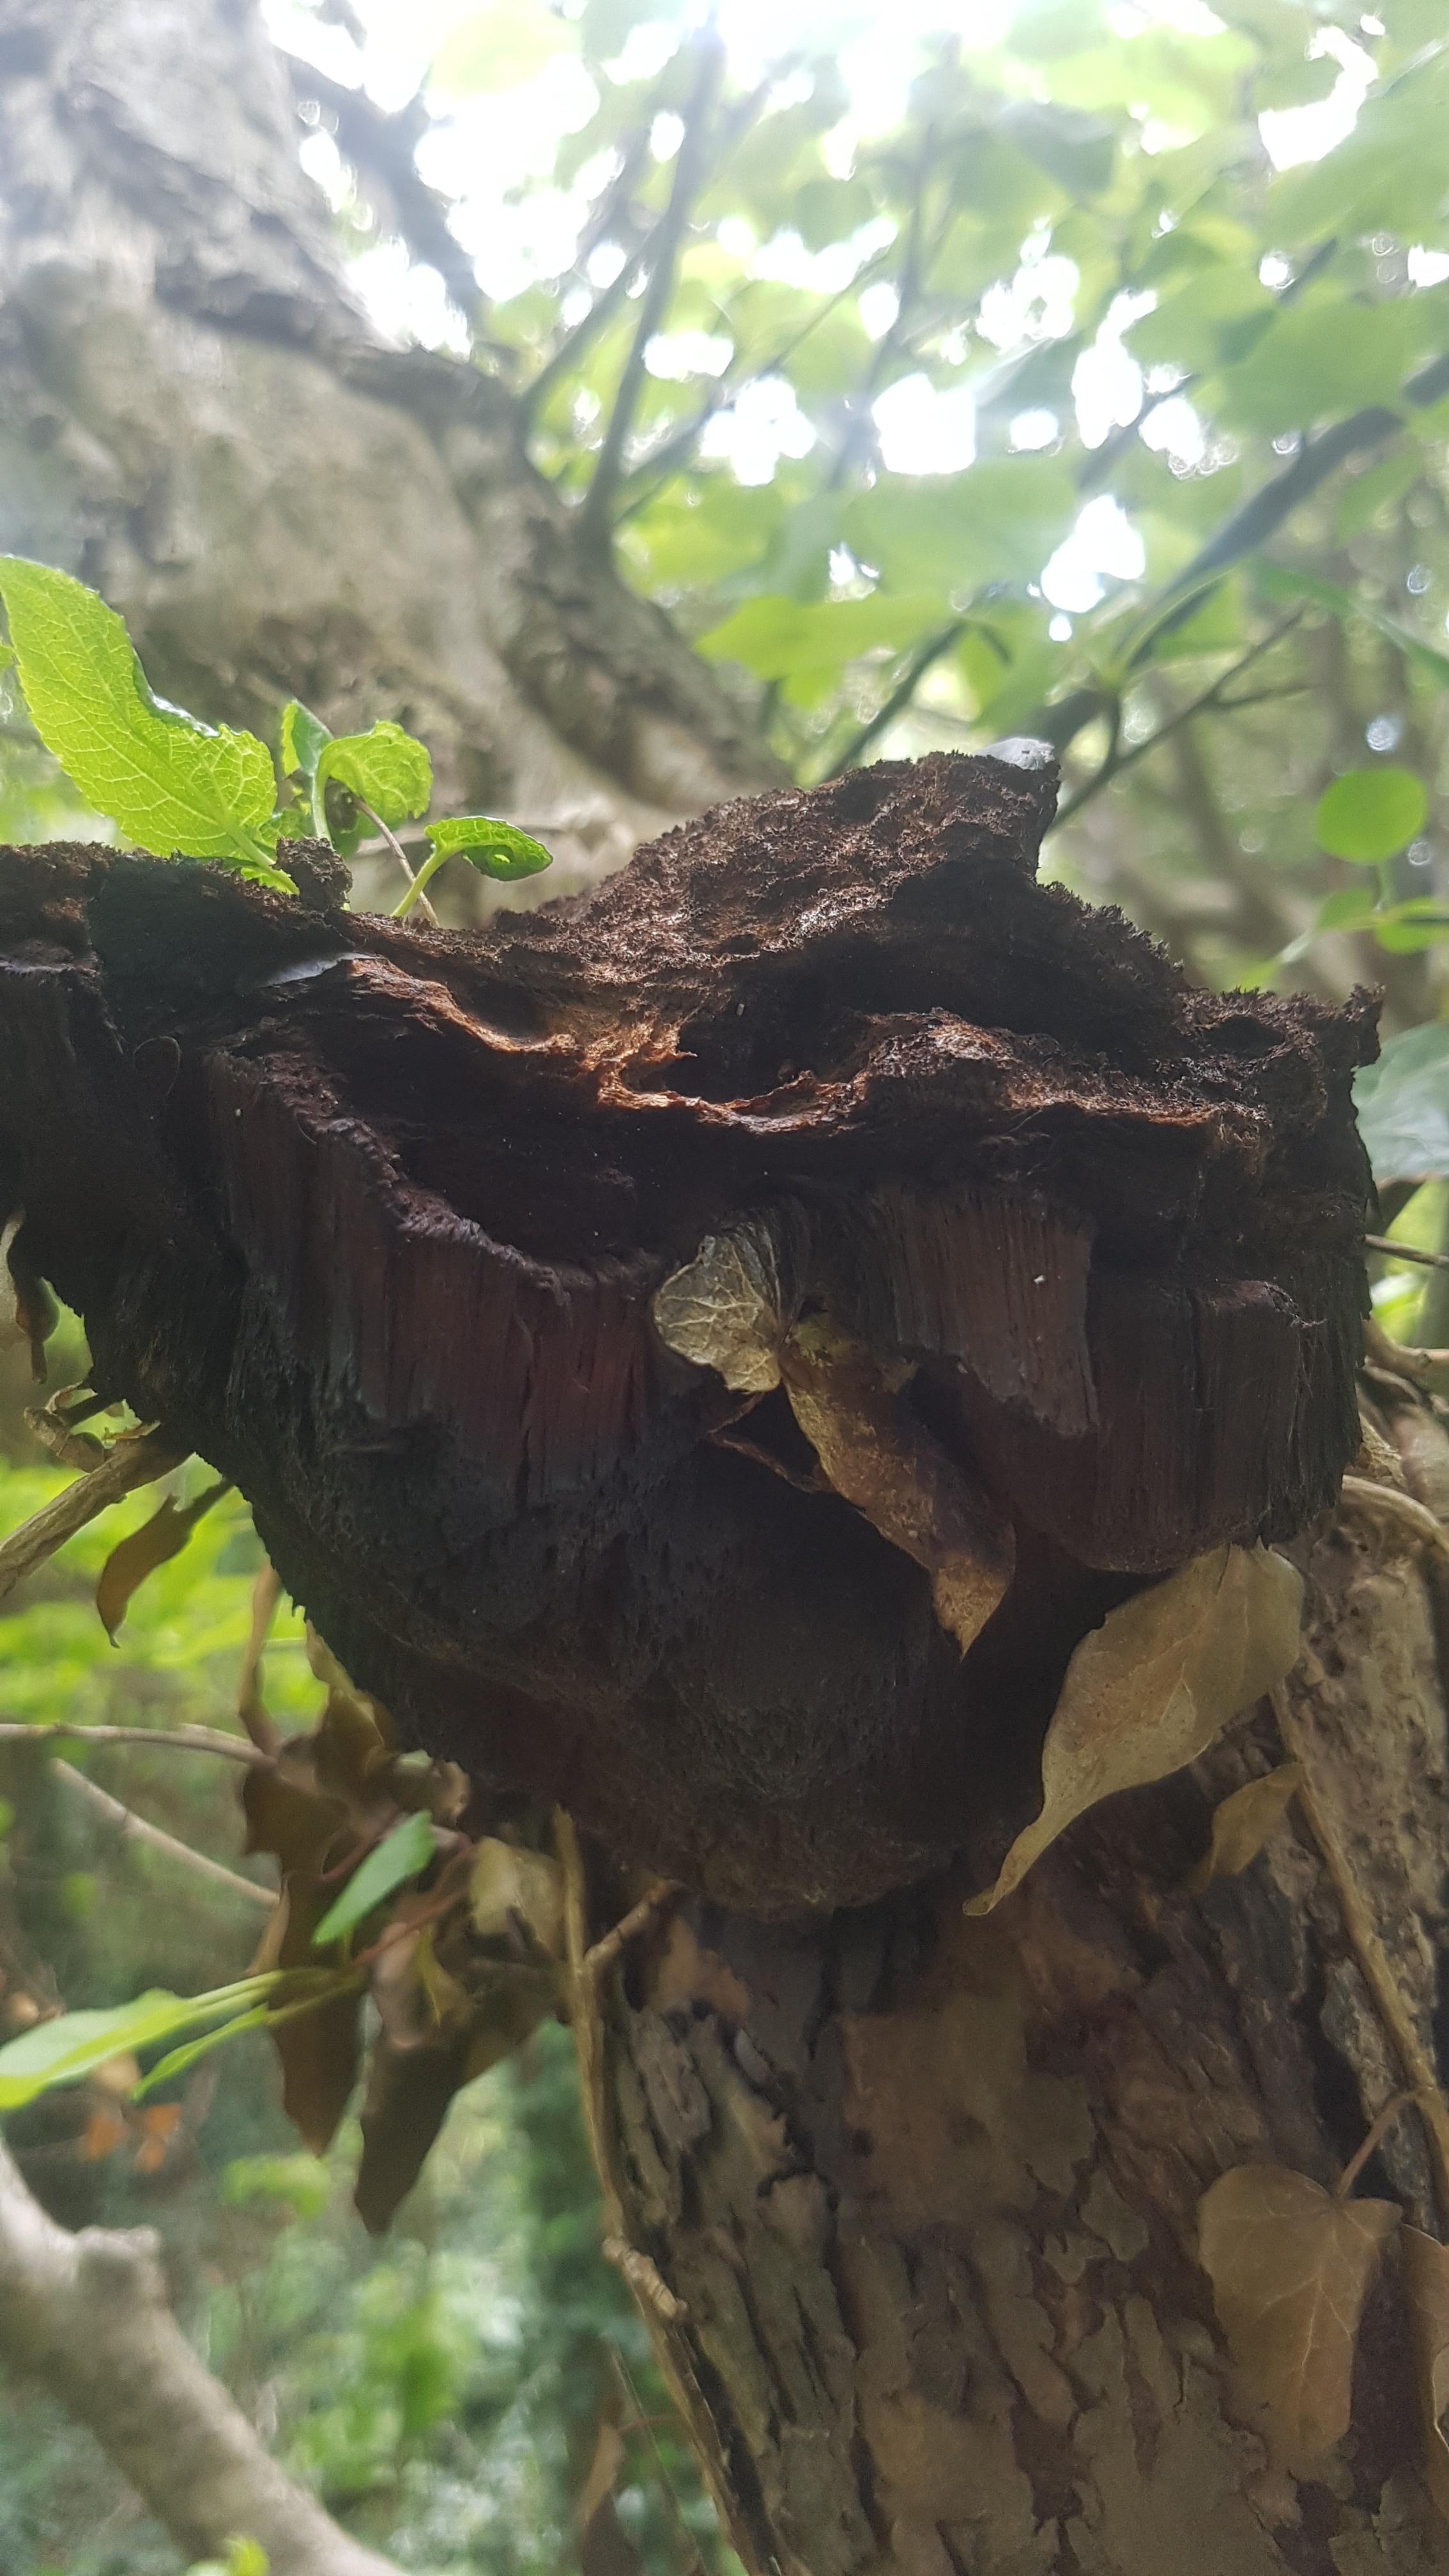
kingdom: Fungi
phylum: Basidiomycota
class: Agaricomycetes
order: Hymenochaetales
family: Hymenochaetaceae
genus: Inonotus
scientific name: Inonotus hispidus
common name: børstehåret spejlporesvamp
